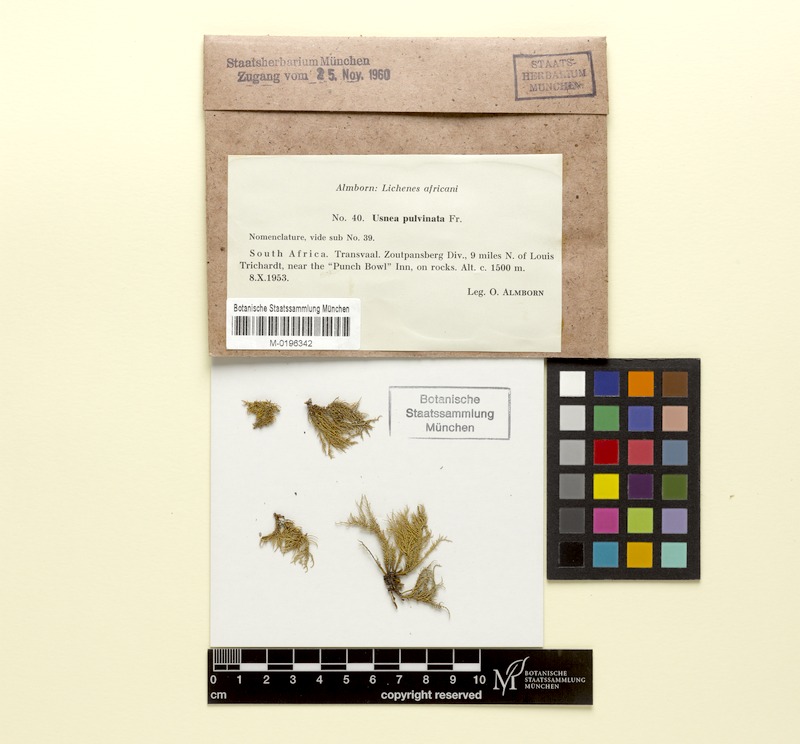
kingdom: Fungi
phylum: Ascomycota
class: Lecanoromycetes
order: Lecanorales
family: Parmeliaceae
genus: Usnea
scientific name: Usnea pulvinata
